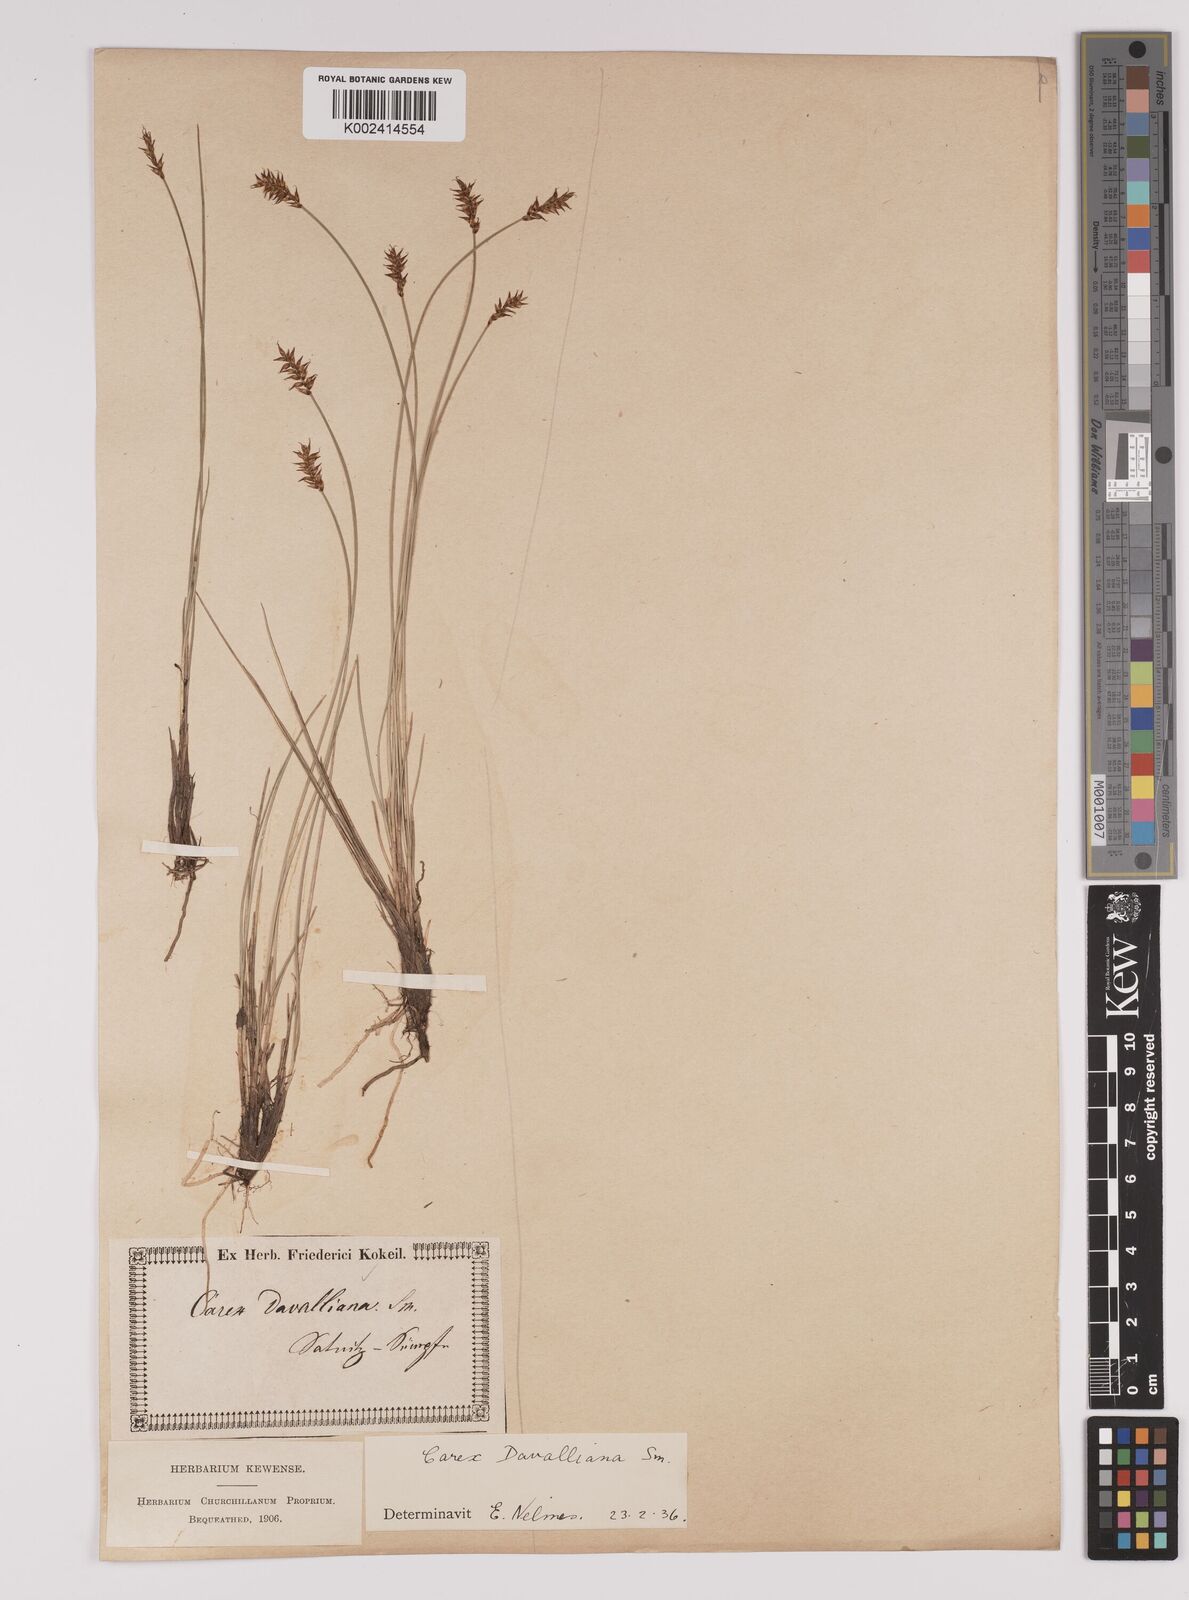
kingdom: Plantae
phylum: Tracheophyta
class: Liliopsida
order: Poales
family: Cyperaceae
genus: Carex
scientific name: Carex davalliana
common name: Davall's sedge
